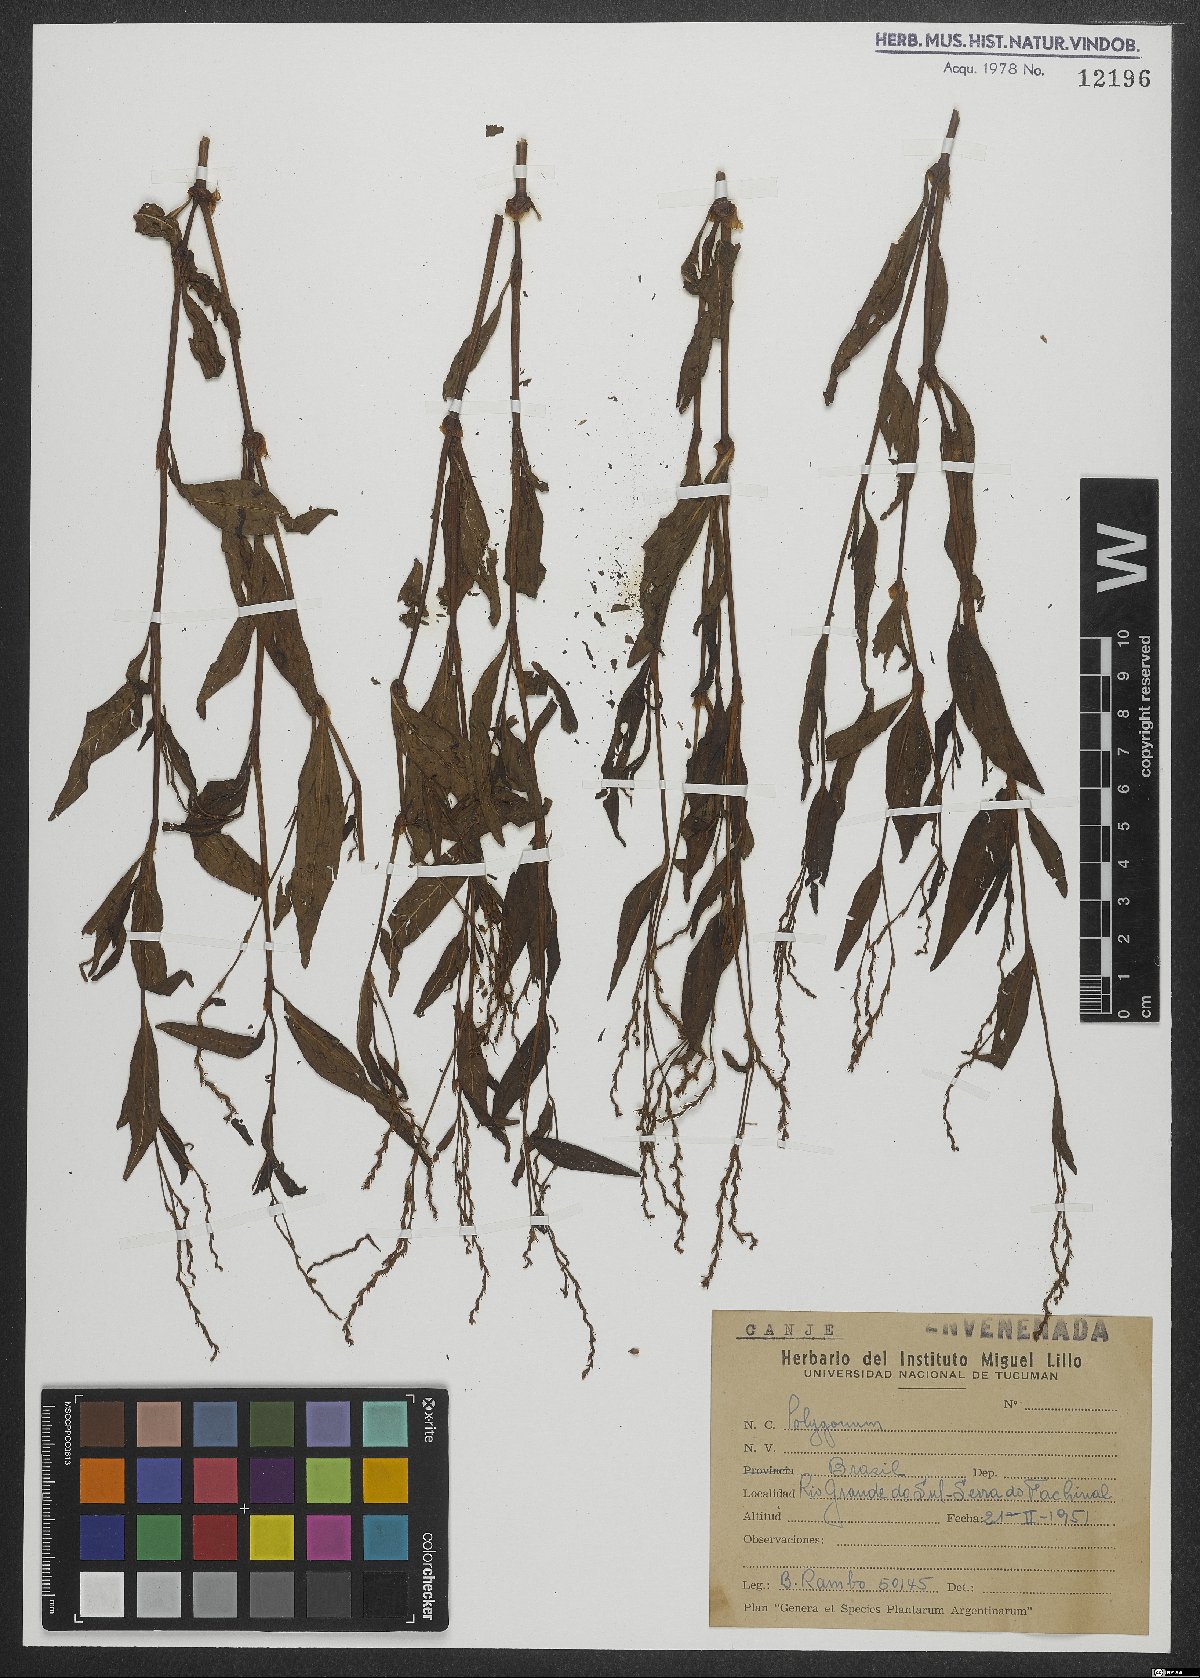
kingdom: Plantae
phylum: Tracheophyta
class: Magnoliopsida
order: Caryophyllales
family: Polygonaceae
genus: Polygonum
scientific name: Polygonum
